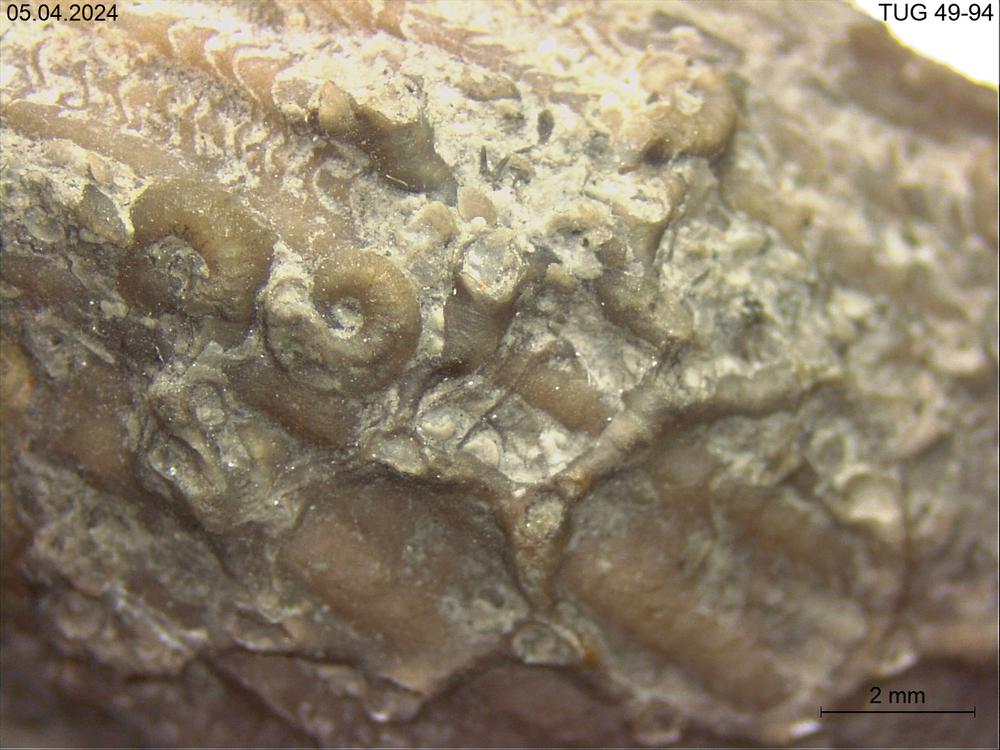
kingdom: Animalia
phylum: Cnidaria
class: Anthozoa
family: Auloporidae
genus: Aulopora
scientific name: Aulopora
